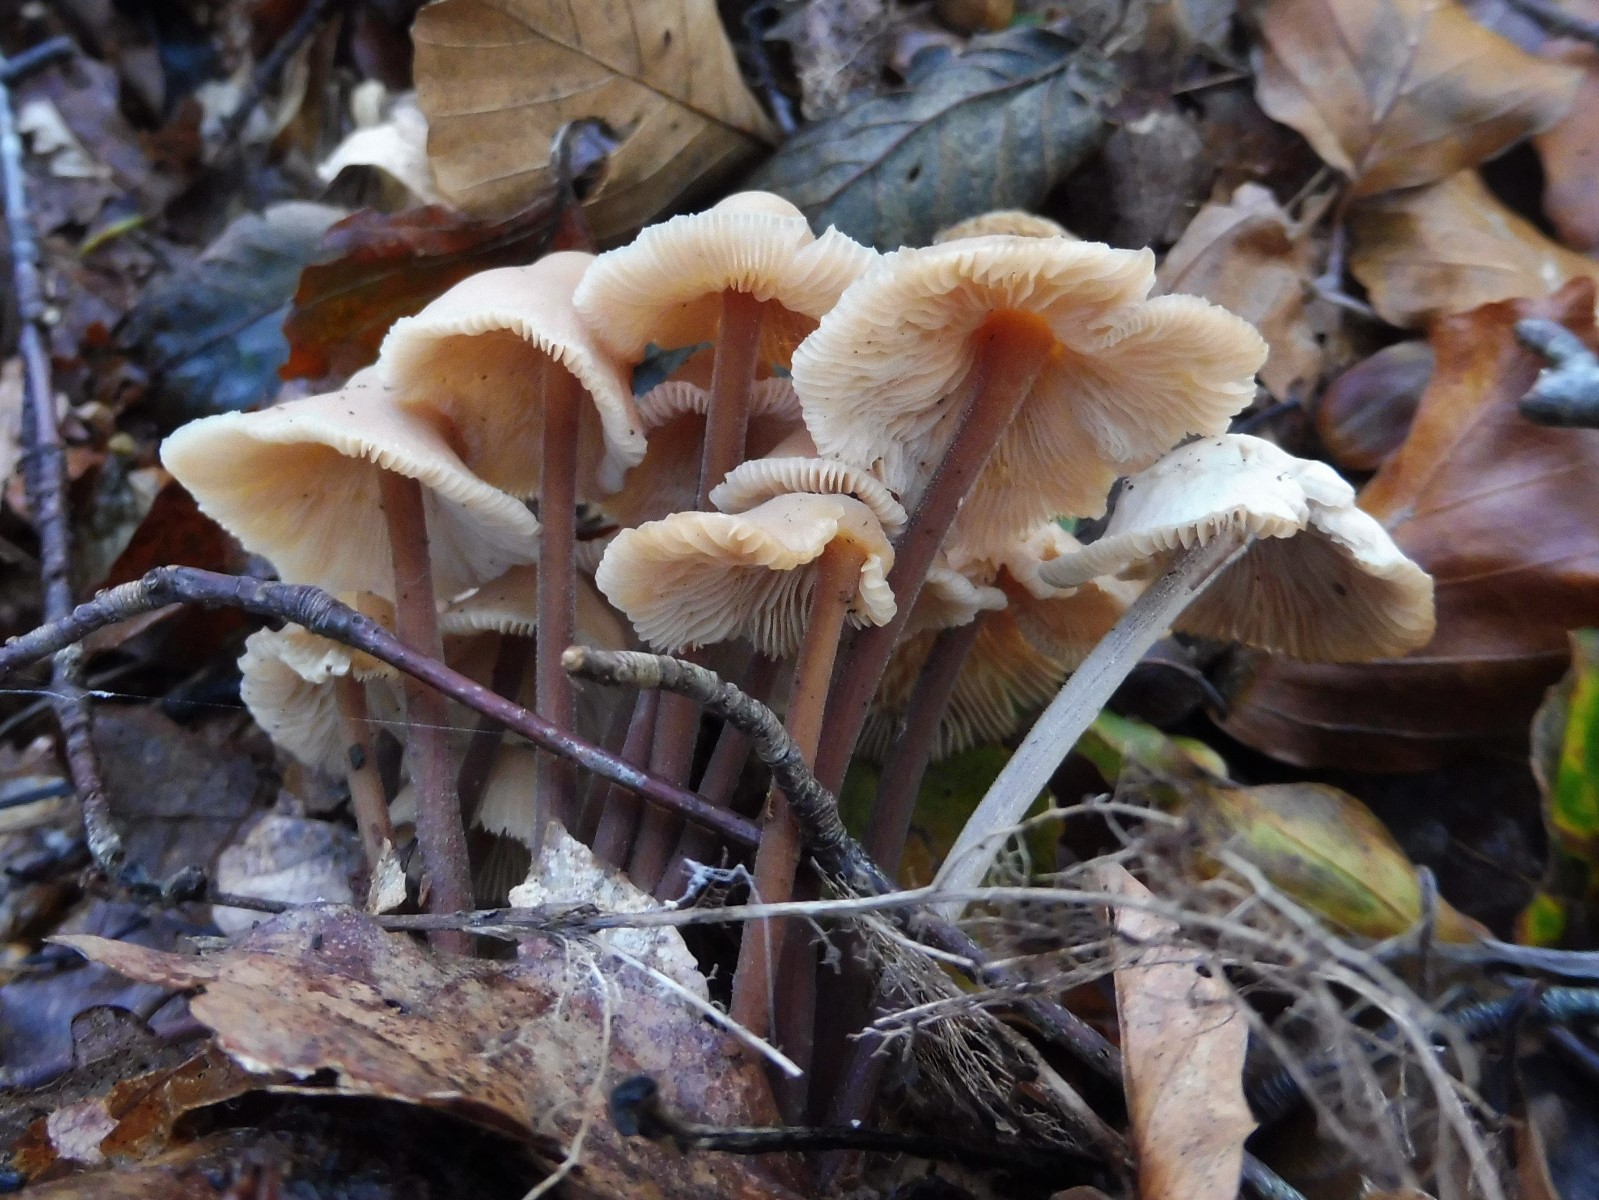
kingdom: Fungi
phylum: Basidiomycota
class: Agaricomycetes
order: Agaricales
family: Omphalotaceae
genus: Collybiopsis
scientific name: Collybiopsis confluens
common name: knippe-fladhat
